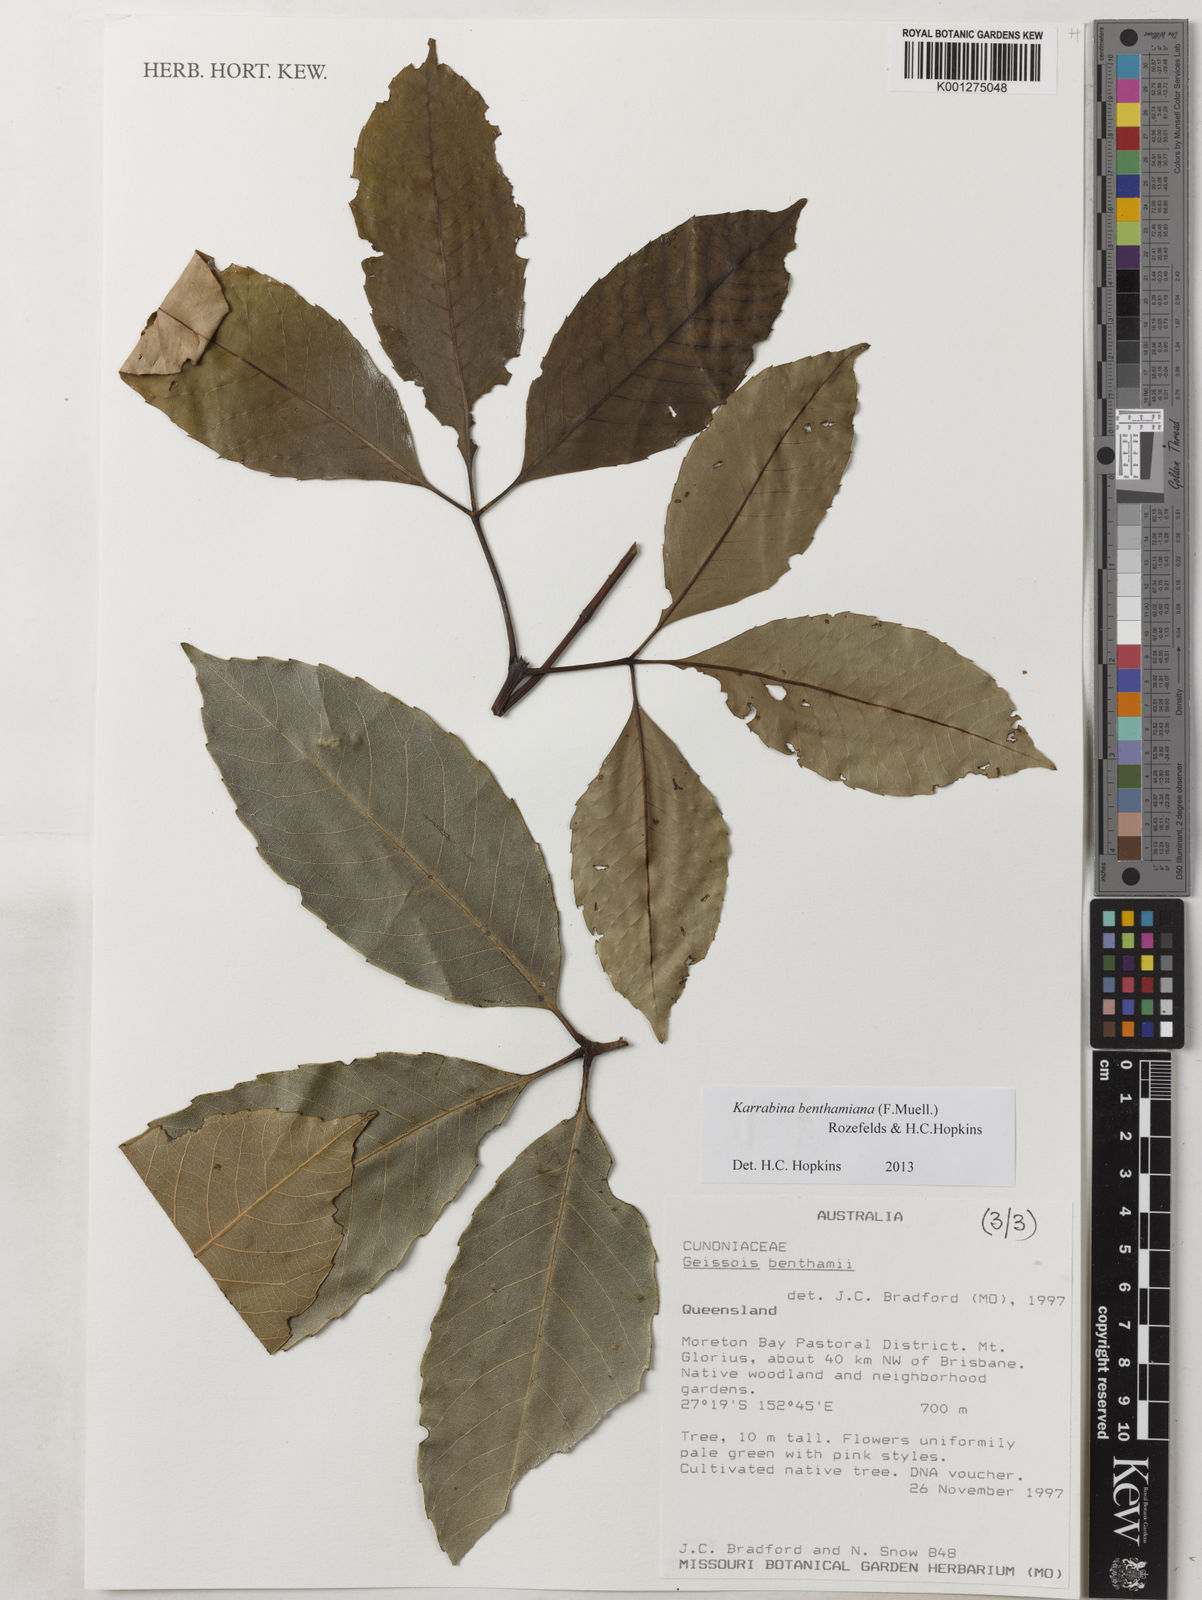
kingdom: Plantae
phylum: Tracheophyta
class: Magnoliopsida
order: Oxalidales
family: Cunoniaceae
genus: Karrabina
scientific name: Karrabina benthamiana
